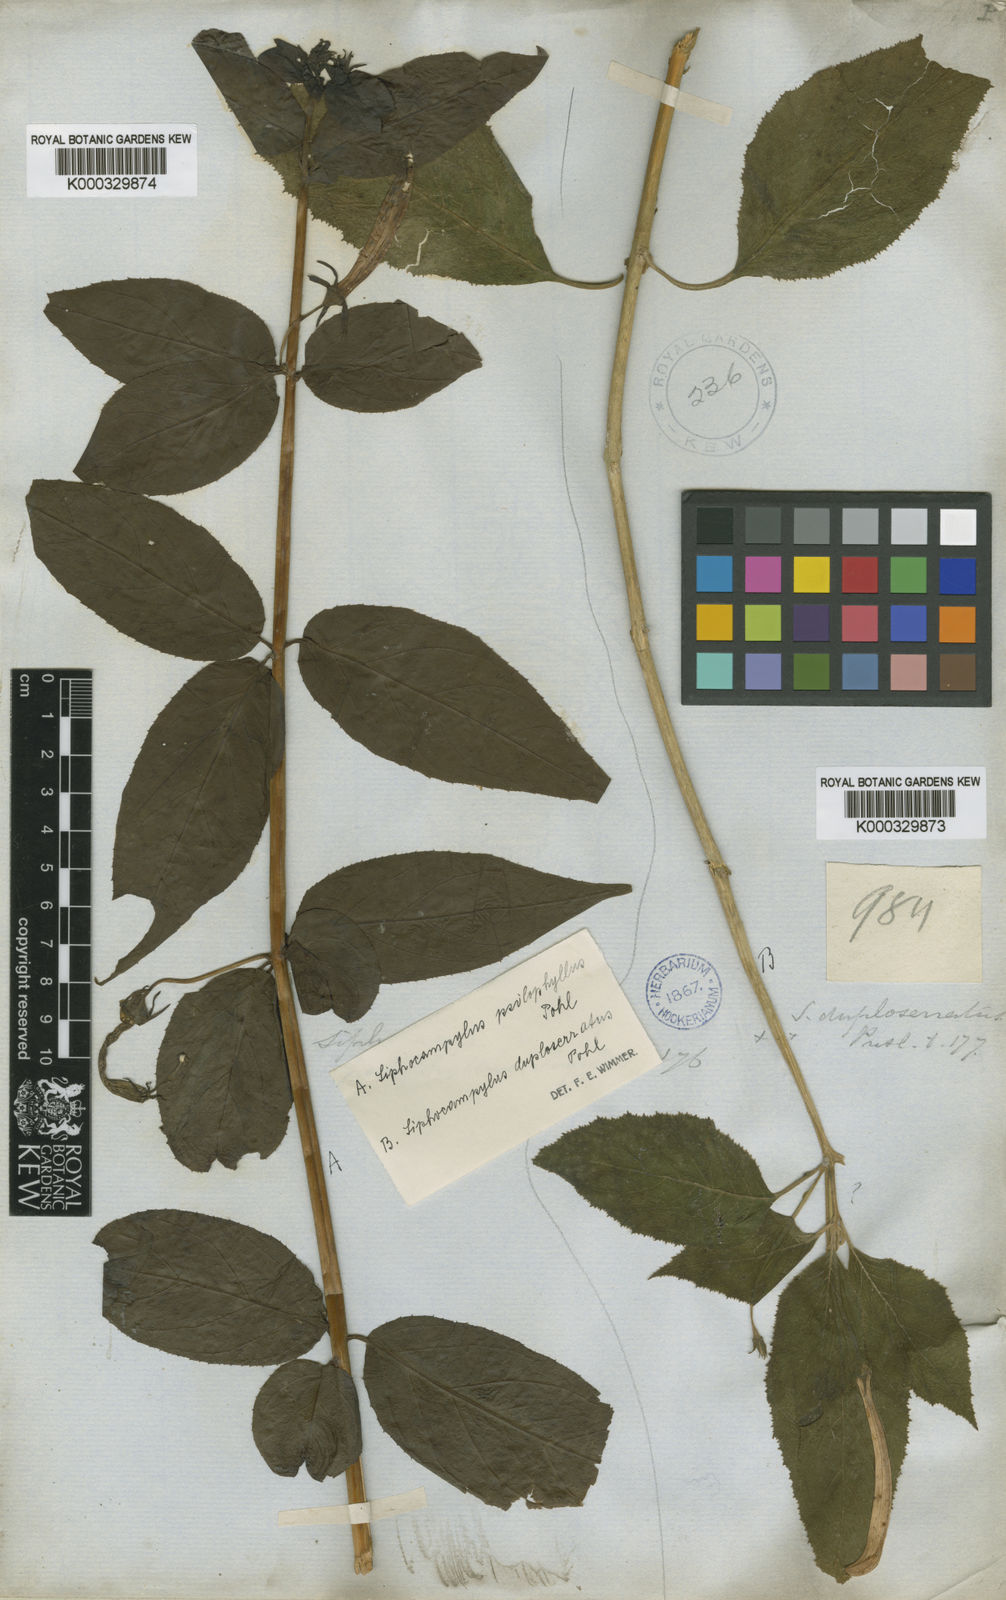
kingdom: Plantae
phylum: Tracheophyta
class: Magnoliopsida
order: Asterales
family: Campanulaceae
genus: Siphocampylus
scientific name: Siphocampylus psilophyllus
